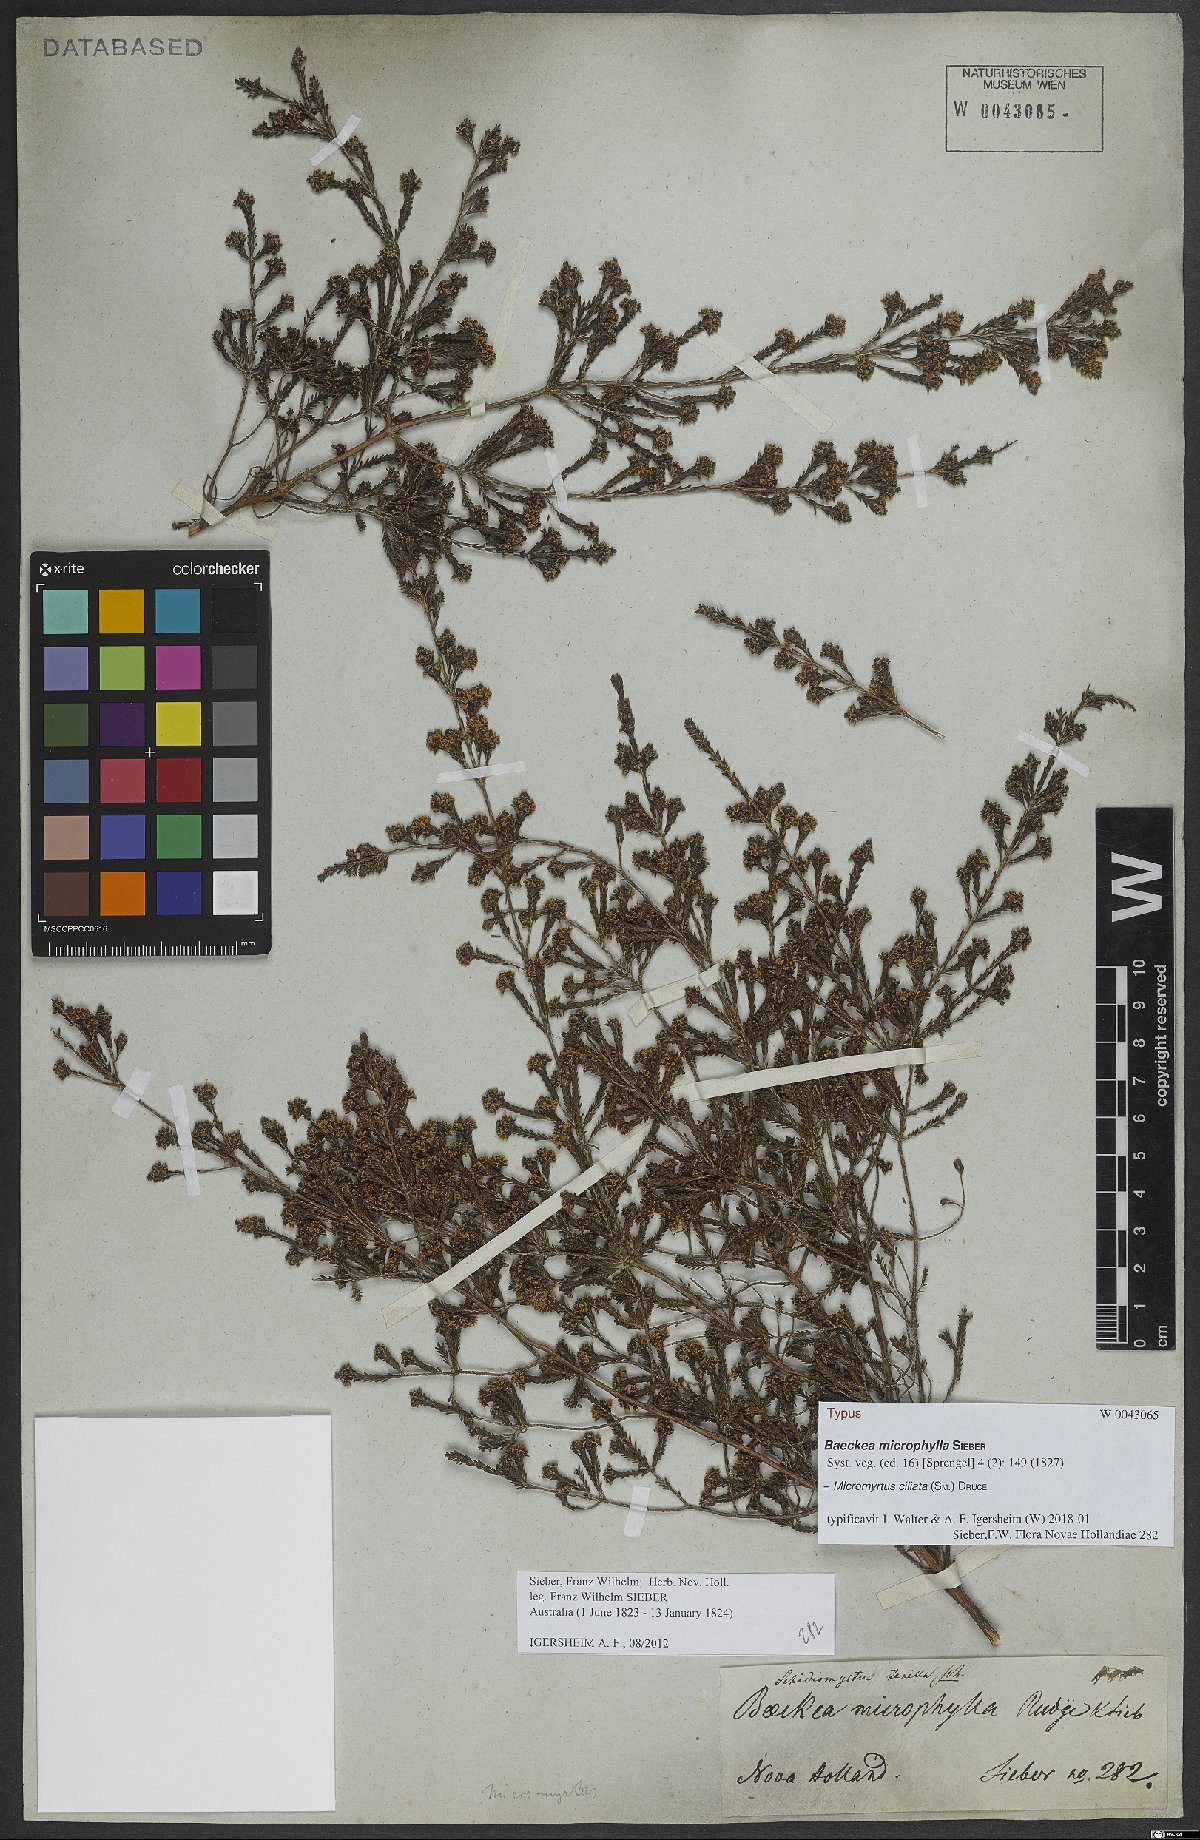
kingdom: Plantae
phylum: Tracheophyta
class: Magnoliopsida
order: Myrtales
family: Myrtaceae
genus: Micromyrtus
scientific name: Micromyrtus ciliata
